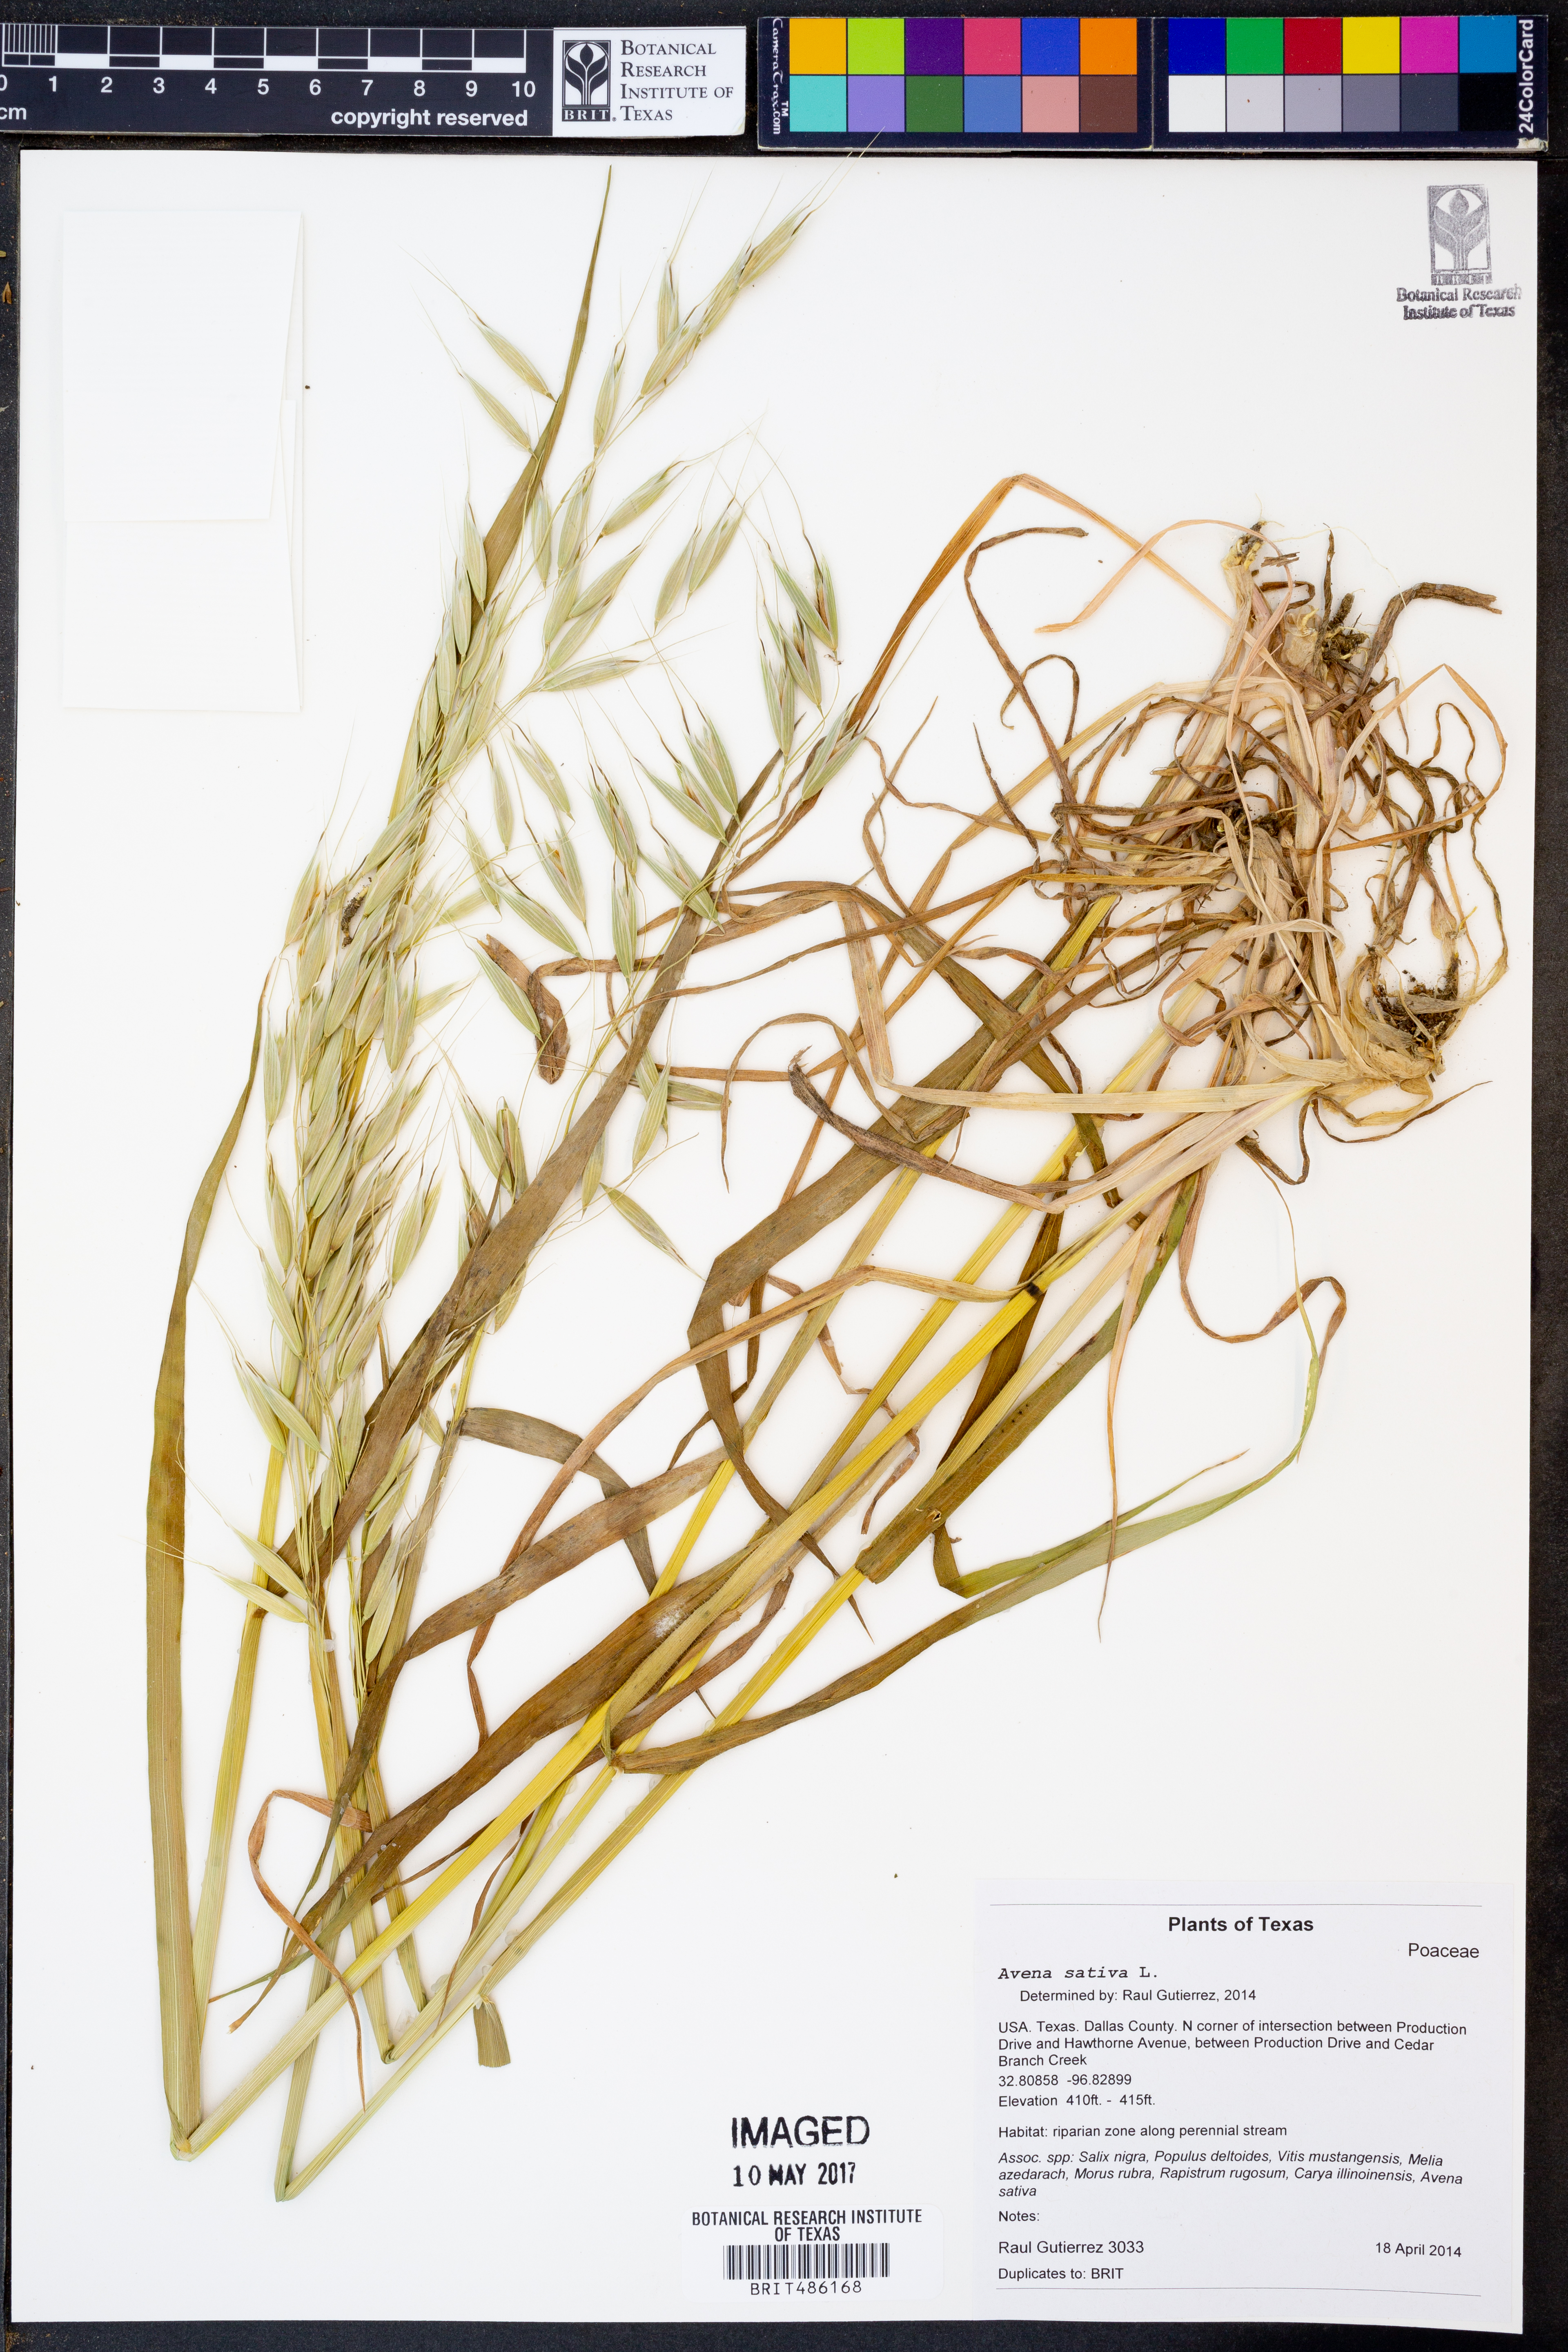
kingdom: Plantae
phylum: Tracheophyta
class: Liliopsida
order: Poales
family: Poaceae
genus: Avena
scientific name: Avena sativa
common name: Oat
